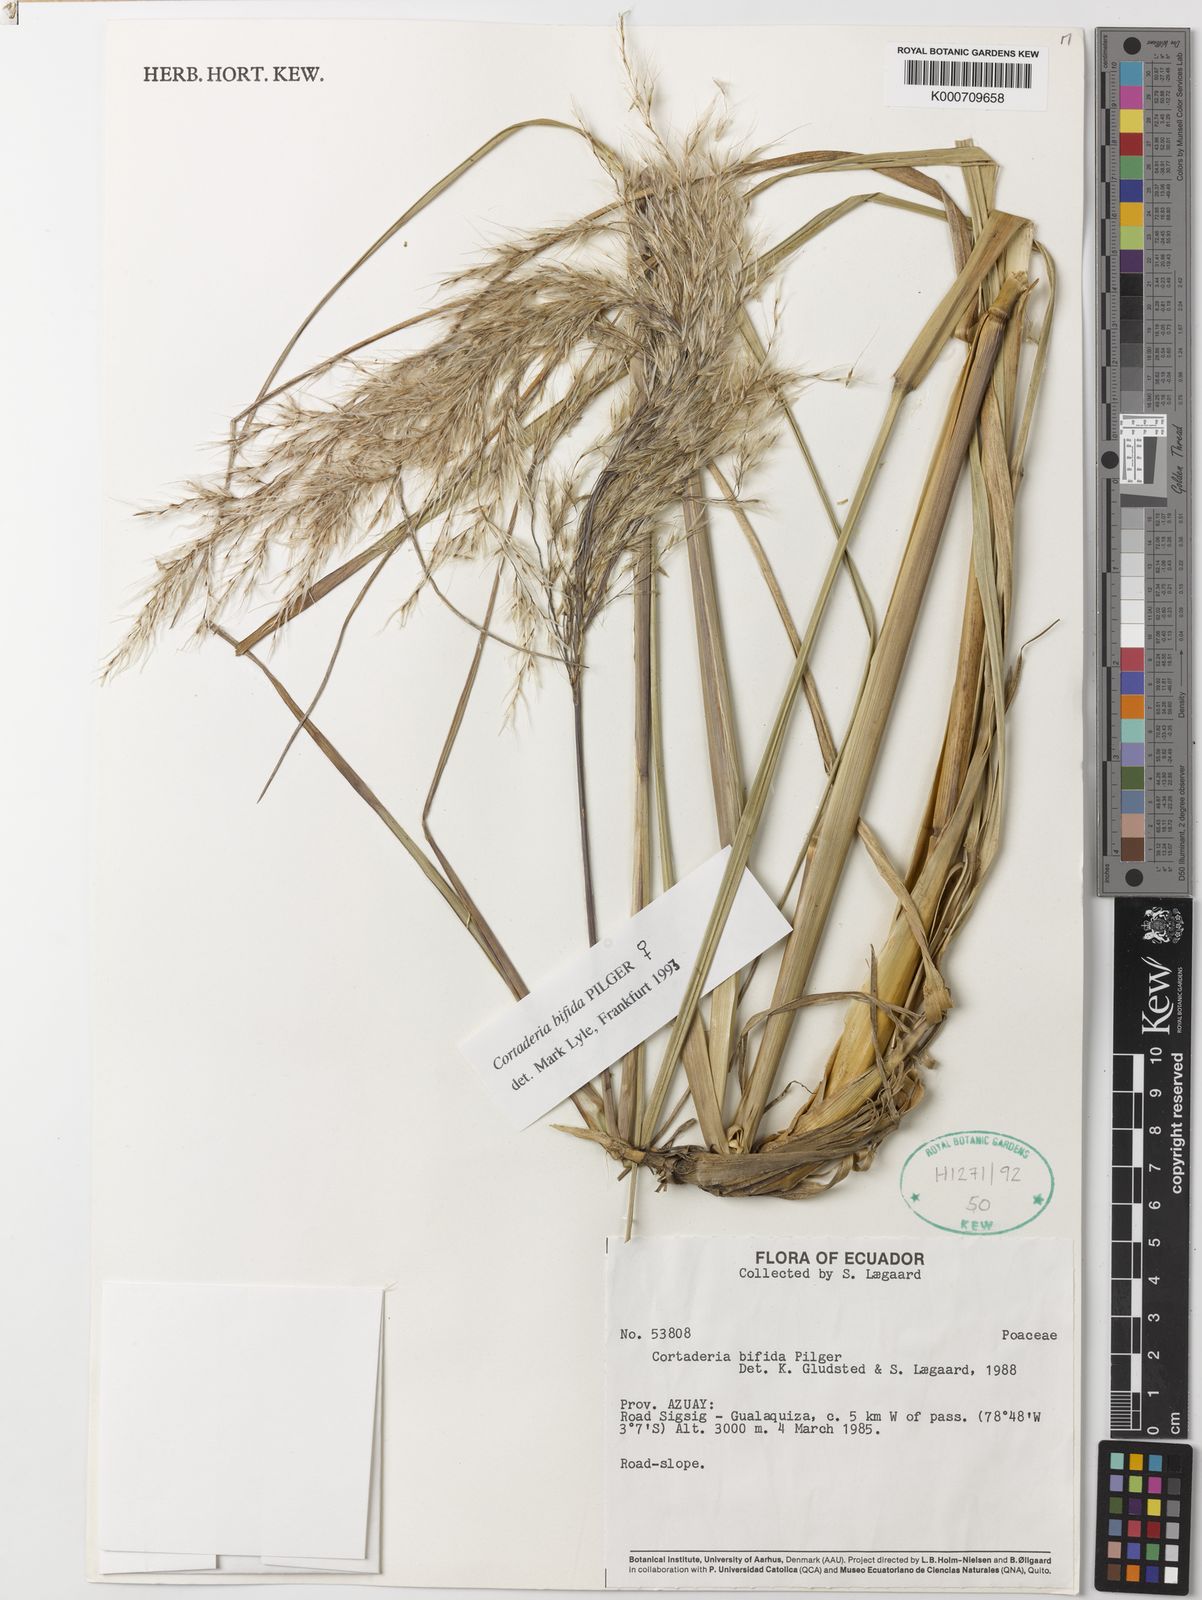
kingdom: Plantae
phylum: Tracheophyta
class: Liliopsida
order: Poales
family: Poaceae
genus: Cortaderia
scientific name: Cortaderia
